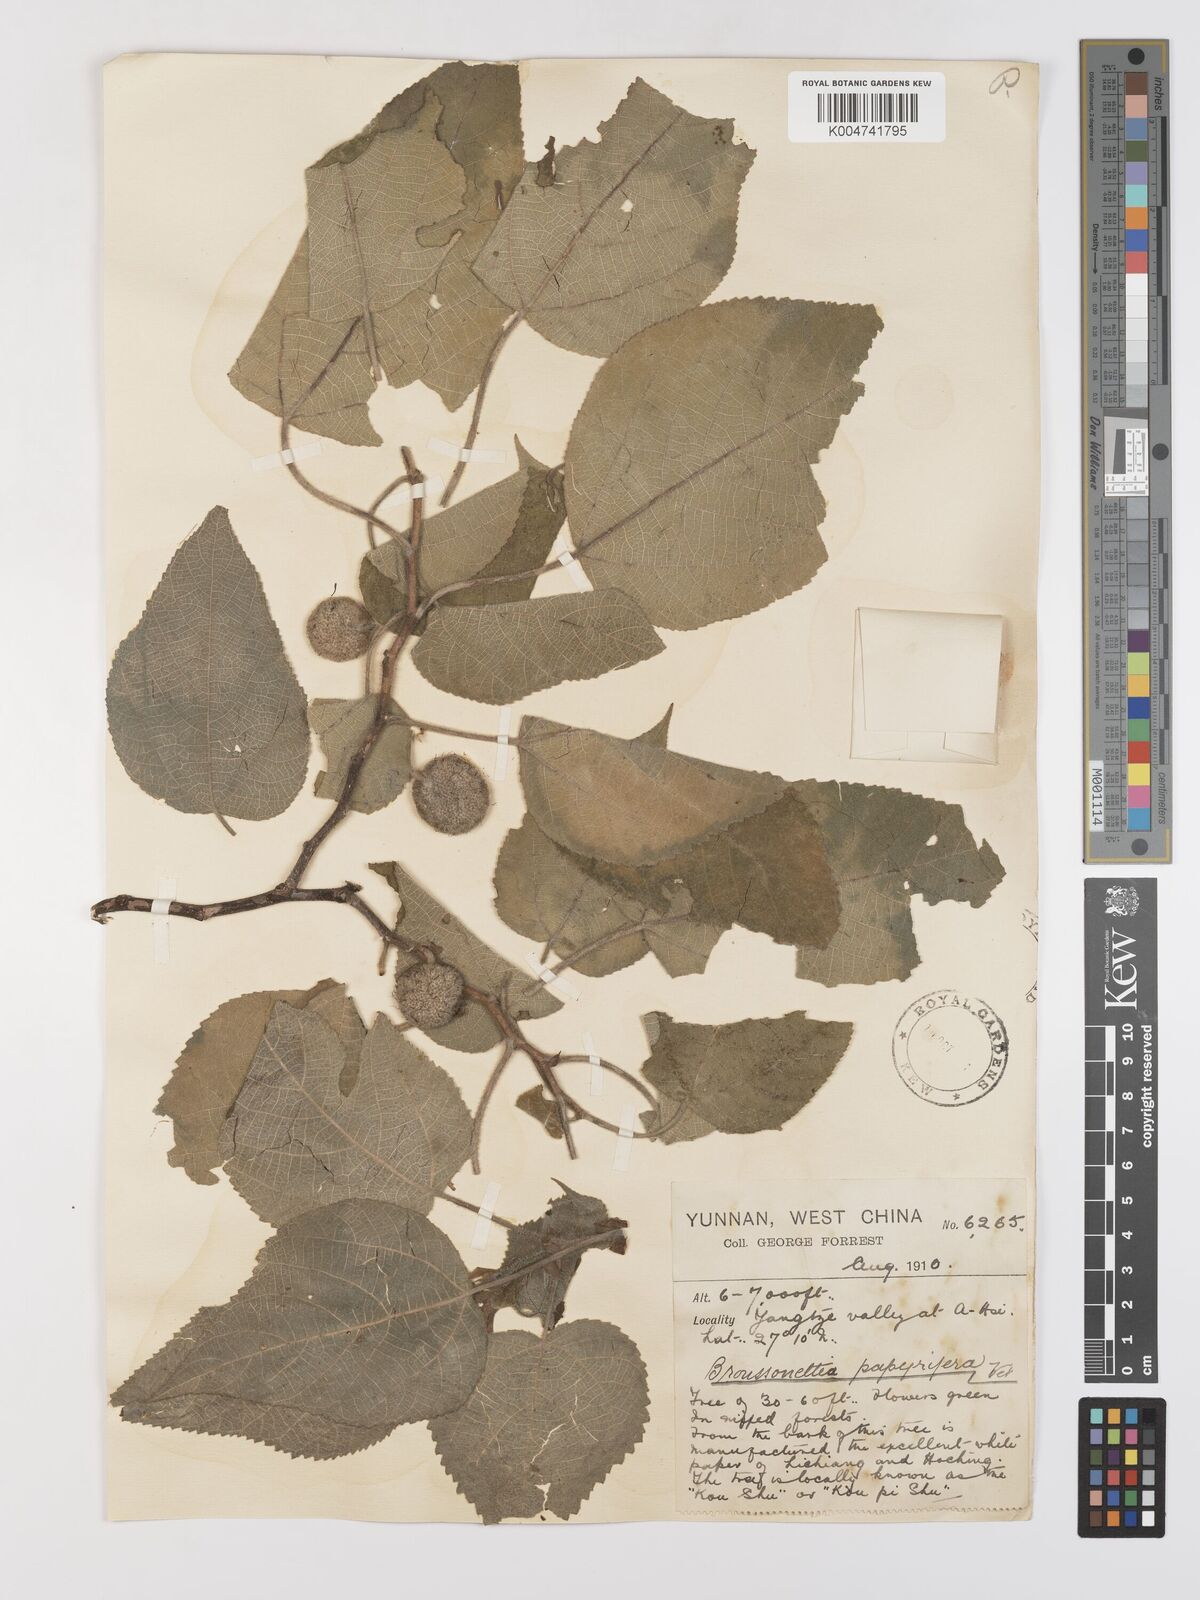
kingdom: Plantae
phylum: Tracheophyta
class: Magnoliopsida
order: Rosales
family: Moraceae
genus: Broussonetia
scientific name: Broussonetia papyrifera
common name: Paper mulberry
